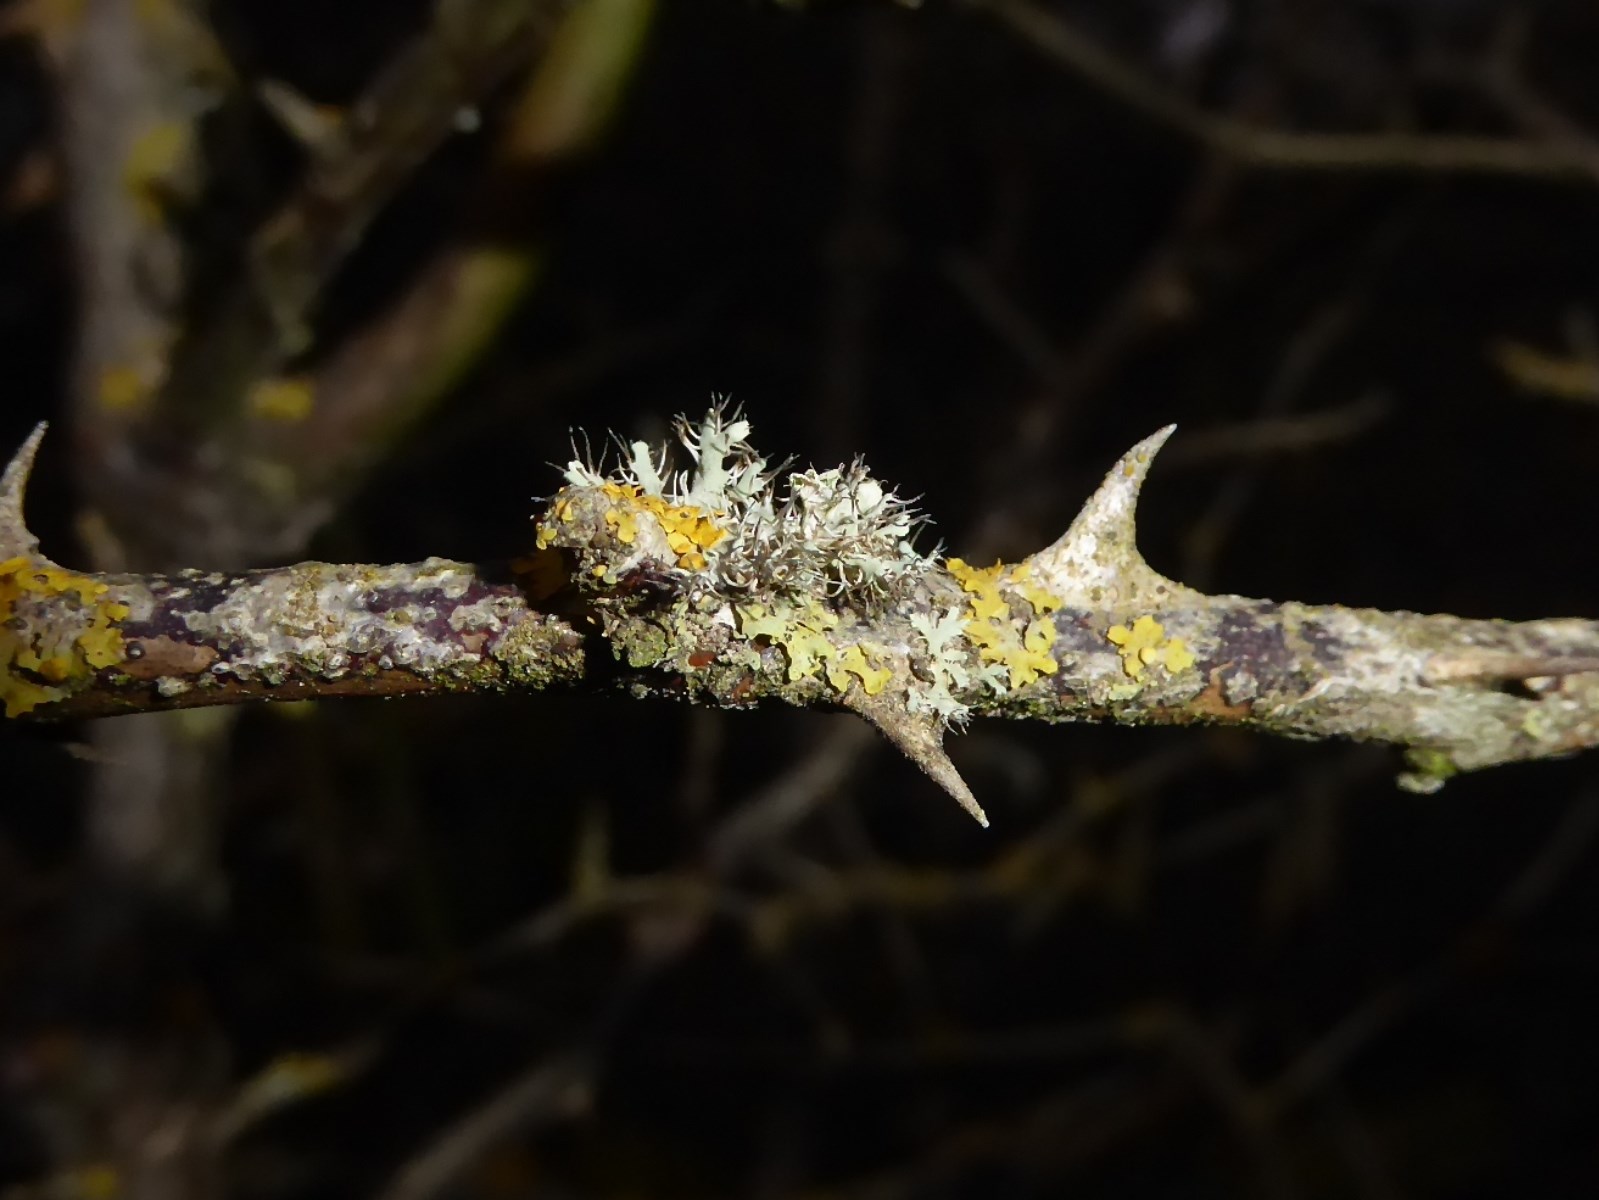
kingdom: Fungi
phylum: Ascomycota
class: Lecanoromycetes
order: Caliciales
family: Physciaceae
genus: Physcia
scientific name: Physcia tenella
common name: spæd rosetlav
